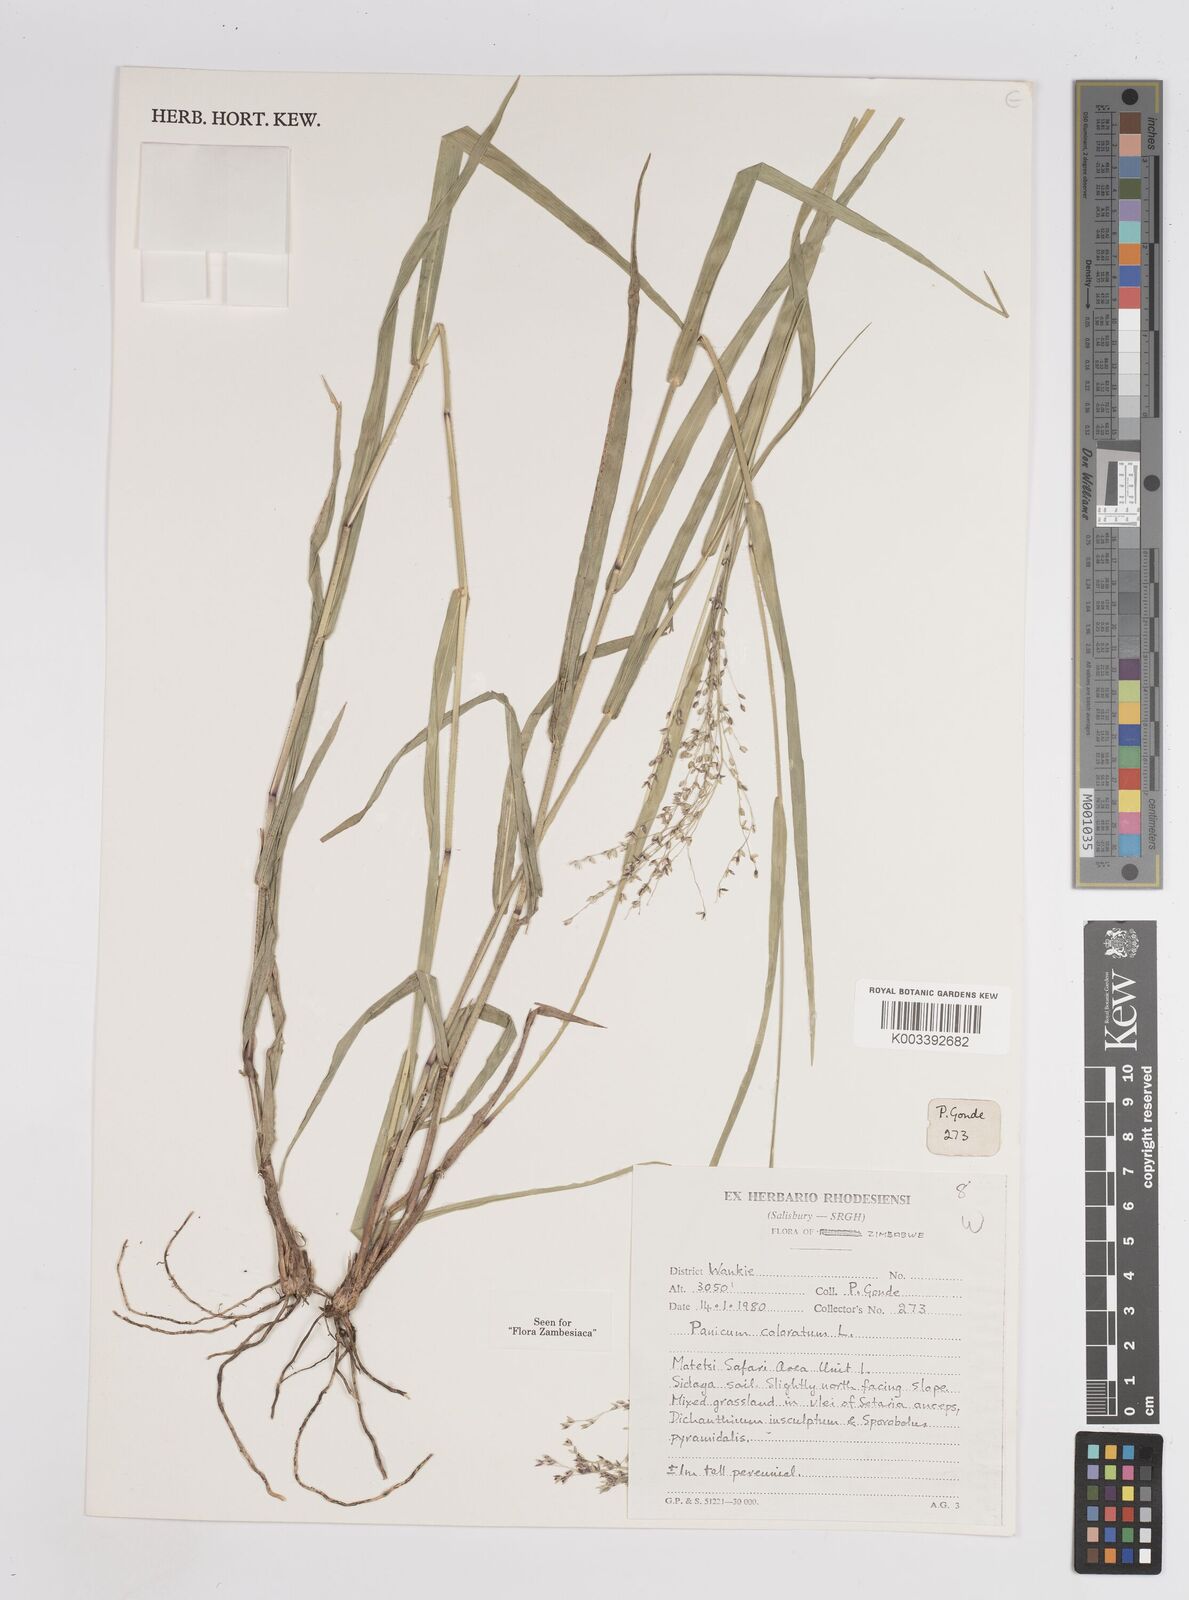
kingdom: Plantae
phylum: Tracheophyta
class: Liliopsida
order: Poales
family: Poaceae
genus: Panicum
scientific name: Panicum
